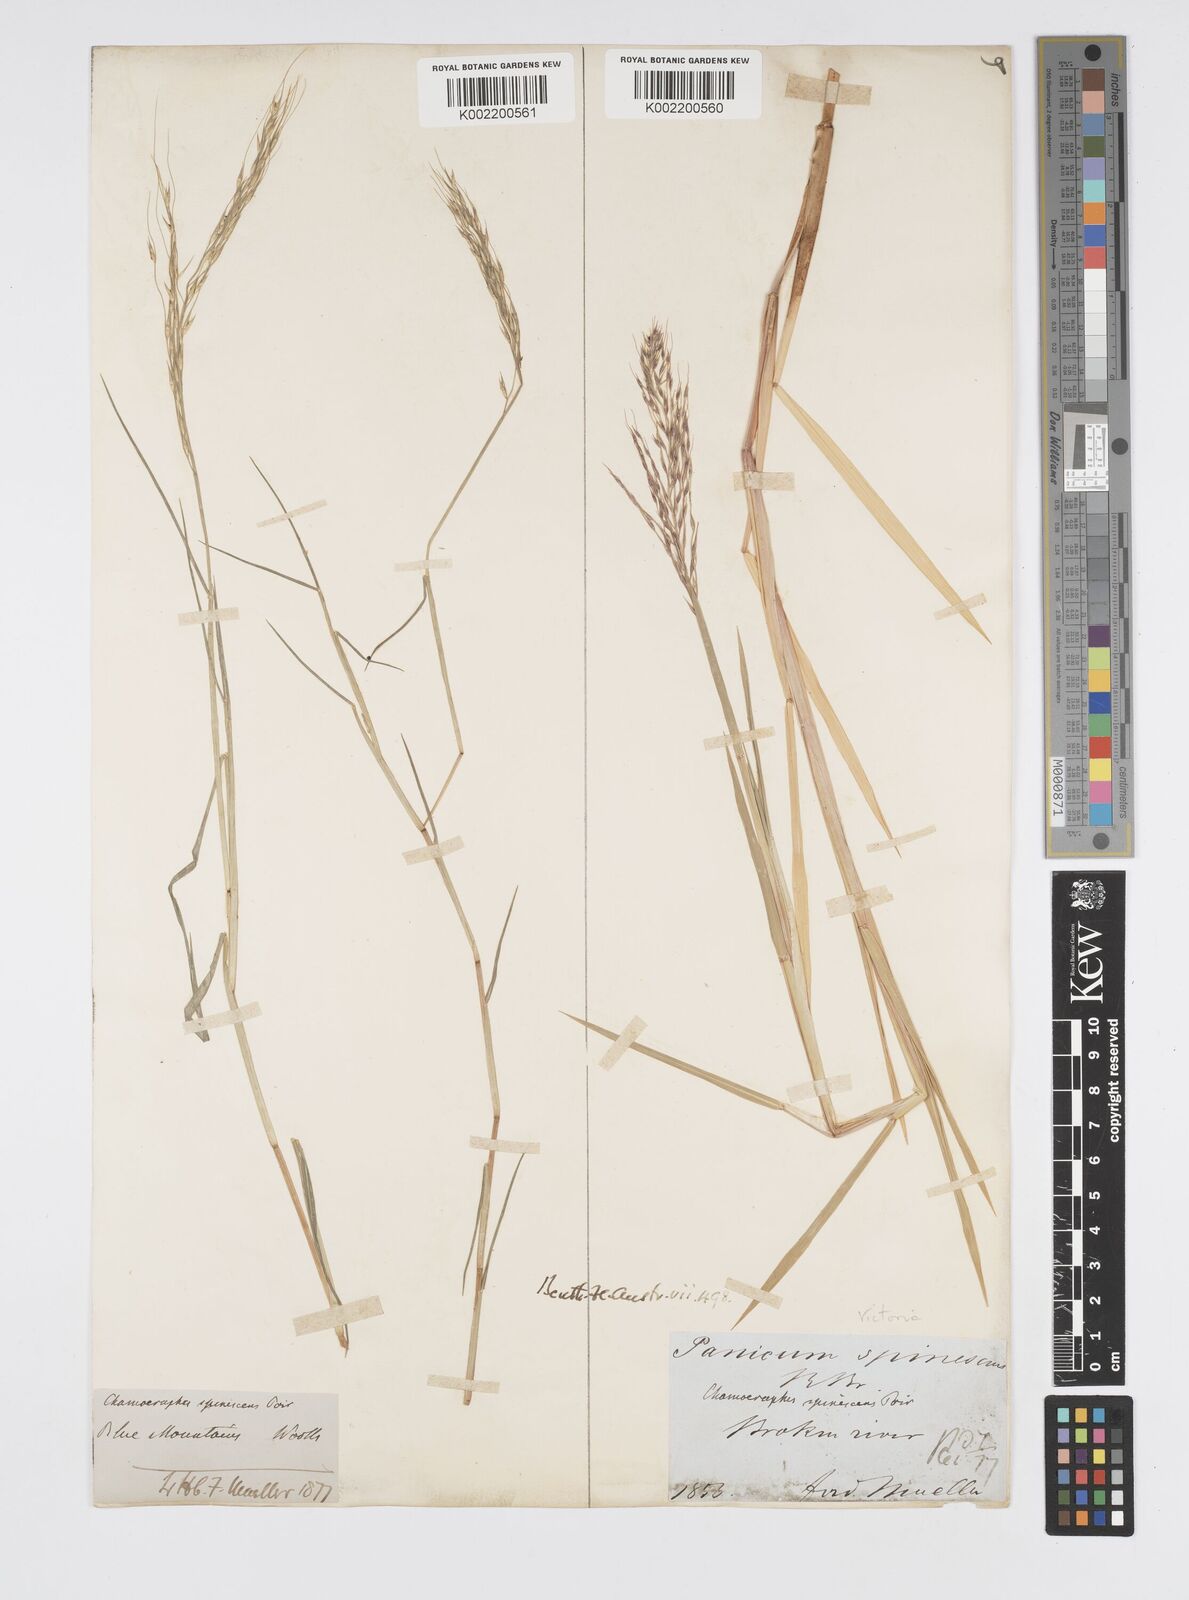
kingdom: Plantae
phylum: Tracheophyta
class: Liliopsida
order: Poales
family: Poaceae
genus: Pseudoraphis
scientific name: Pseudoraphis spinescens
